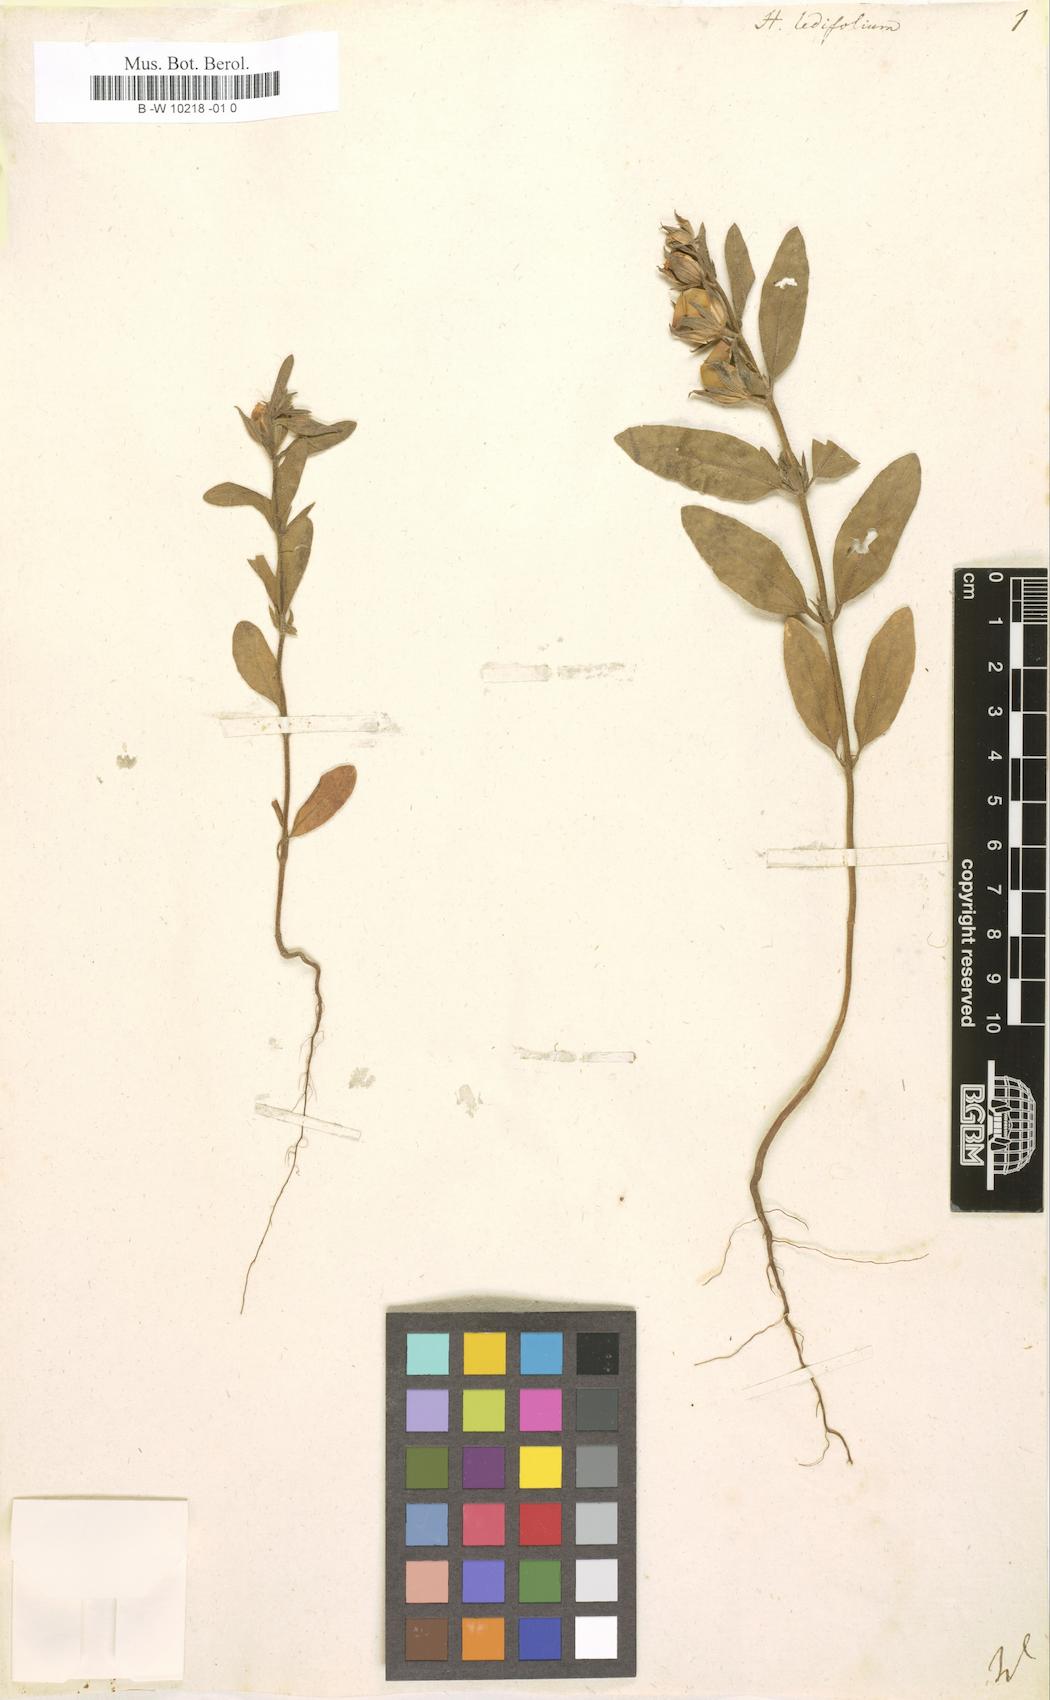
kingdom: Plantae
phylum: Tracheophyta
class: Magnoliopsida
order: Malvales
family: Cistaceae
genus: Helianthemum
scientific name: Helianthemum ledifolium
